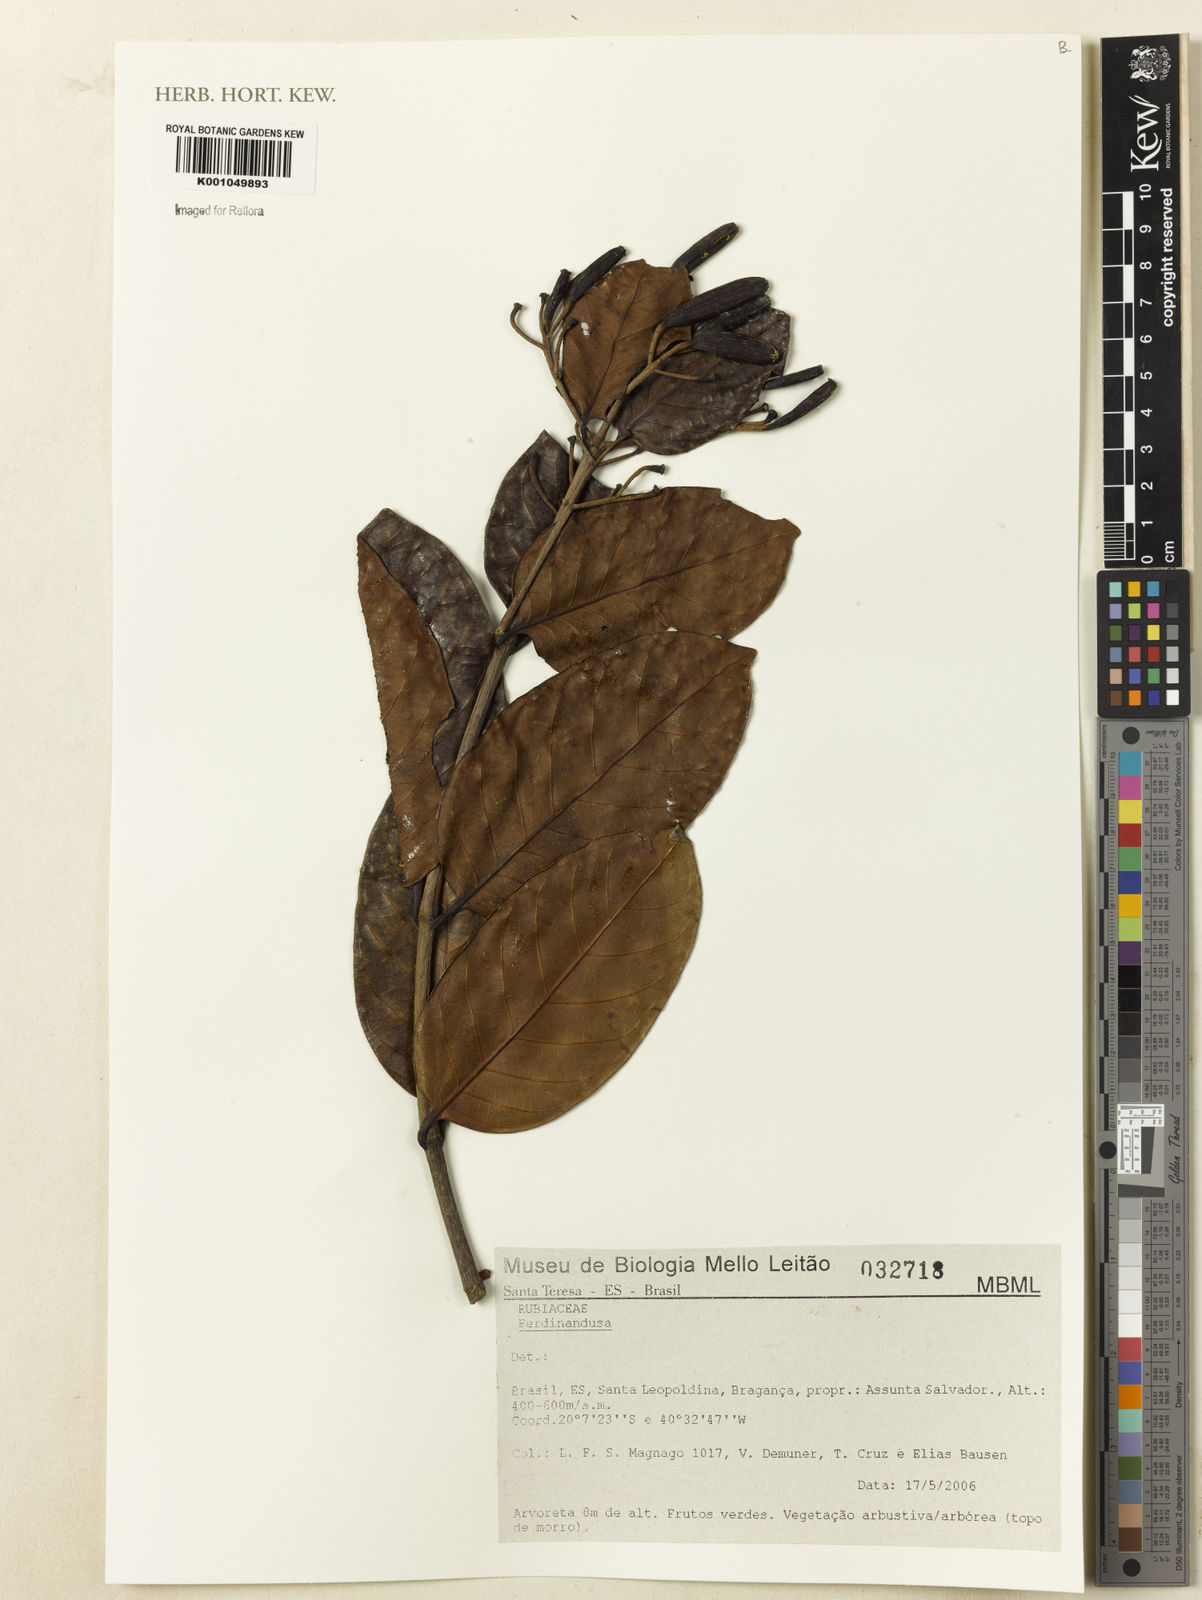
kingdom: Plantae
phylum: Tracheophyta
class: Magnoliopsida
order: Gentianales
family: Rubiaceae
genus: Ferdinandusa
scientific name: Ferdinandusa
